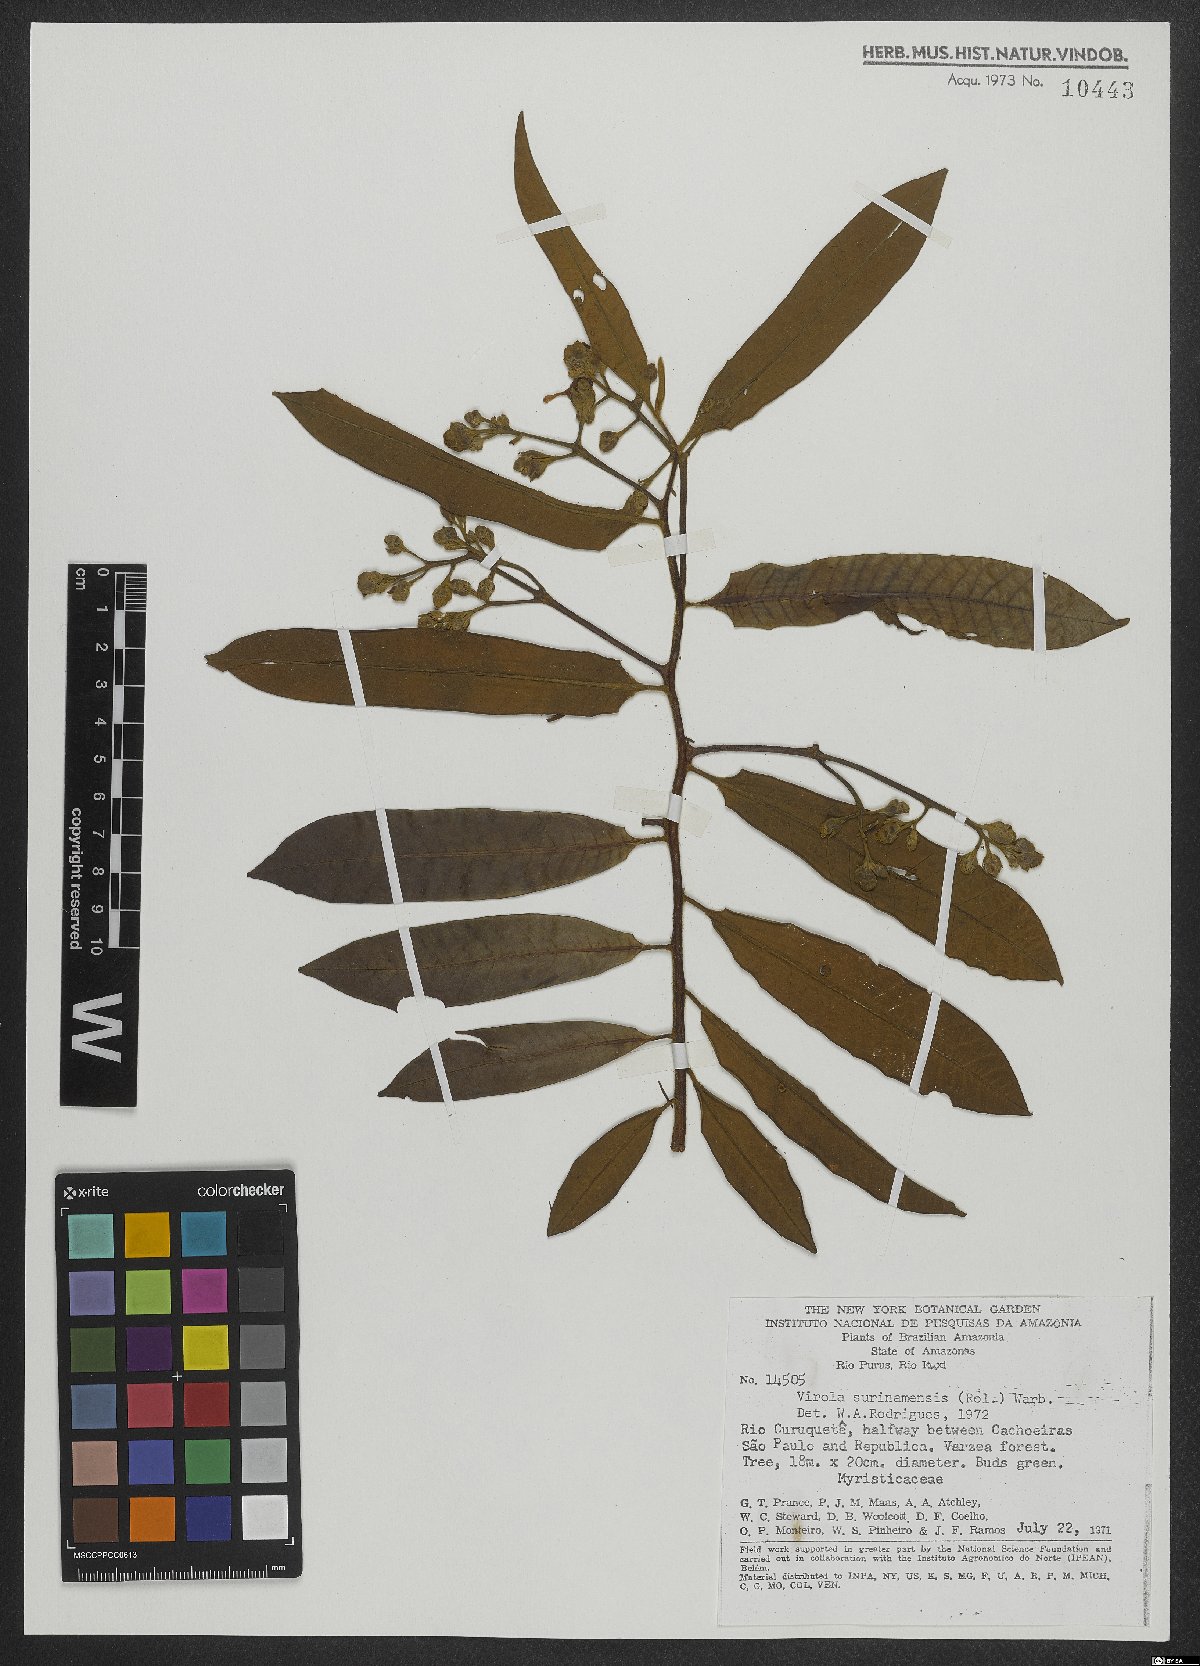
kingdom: Plantae
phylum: Tracheophyta
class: Magnoliopsida
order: Magnoliales
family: Myristicaceae
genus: Virola
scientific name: Virola surinamensis
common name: Baboonwood
